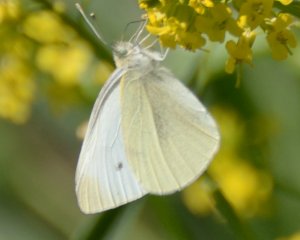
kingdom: Animalia
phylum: Arthropoda
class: Insecta
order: Lepidoptera
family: Pieridae
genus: Pieris
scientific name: Pieris rapae
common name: Cabbage White
